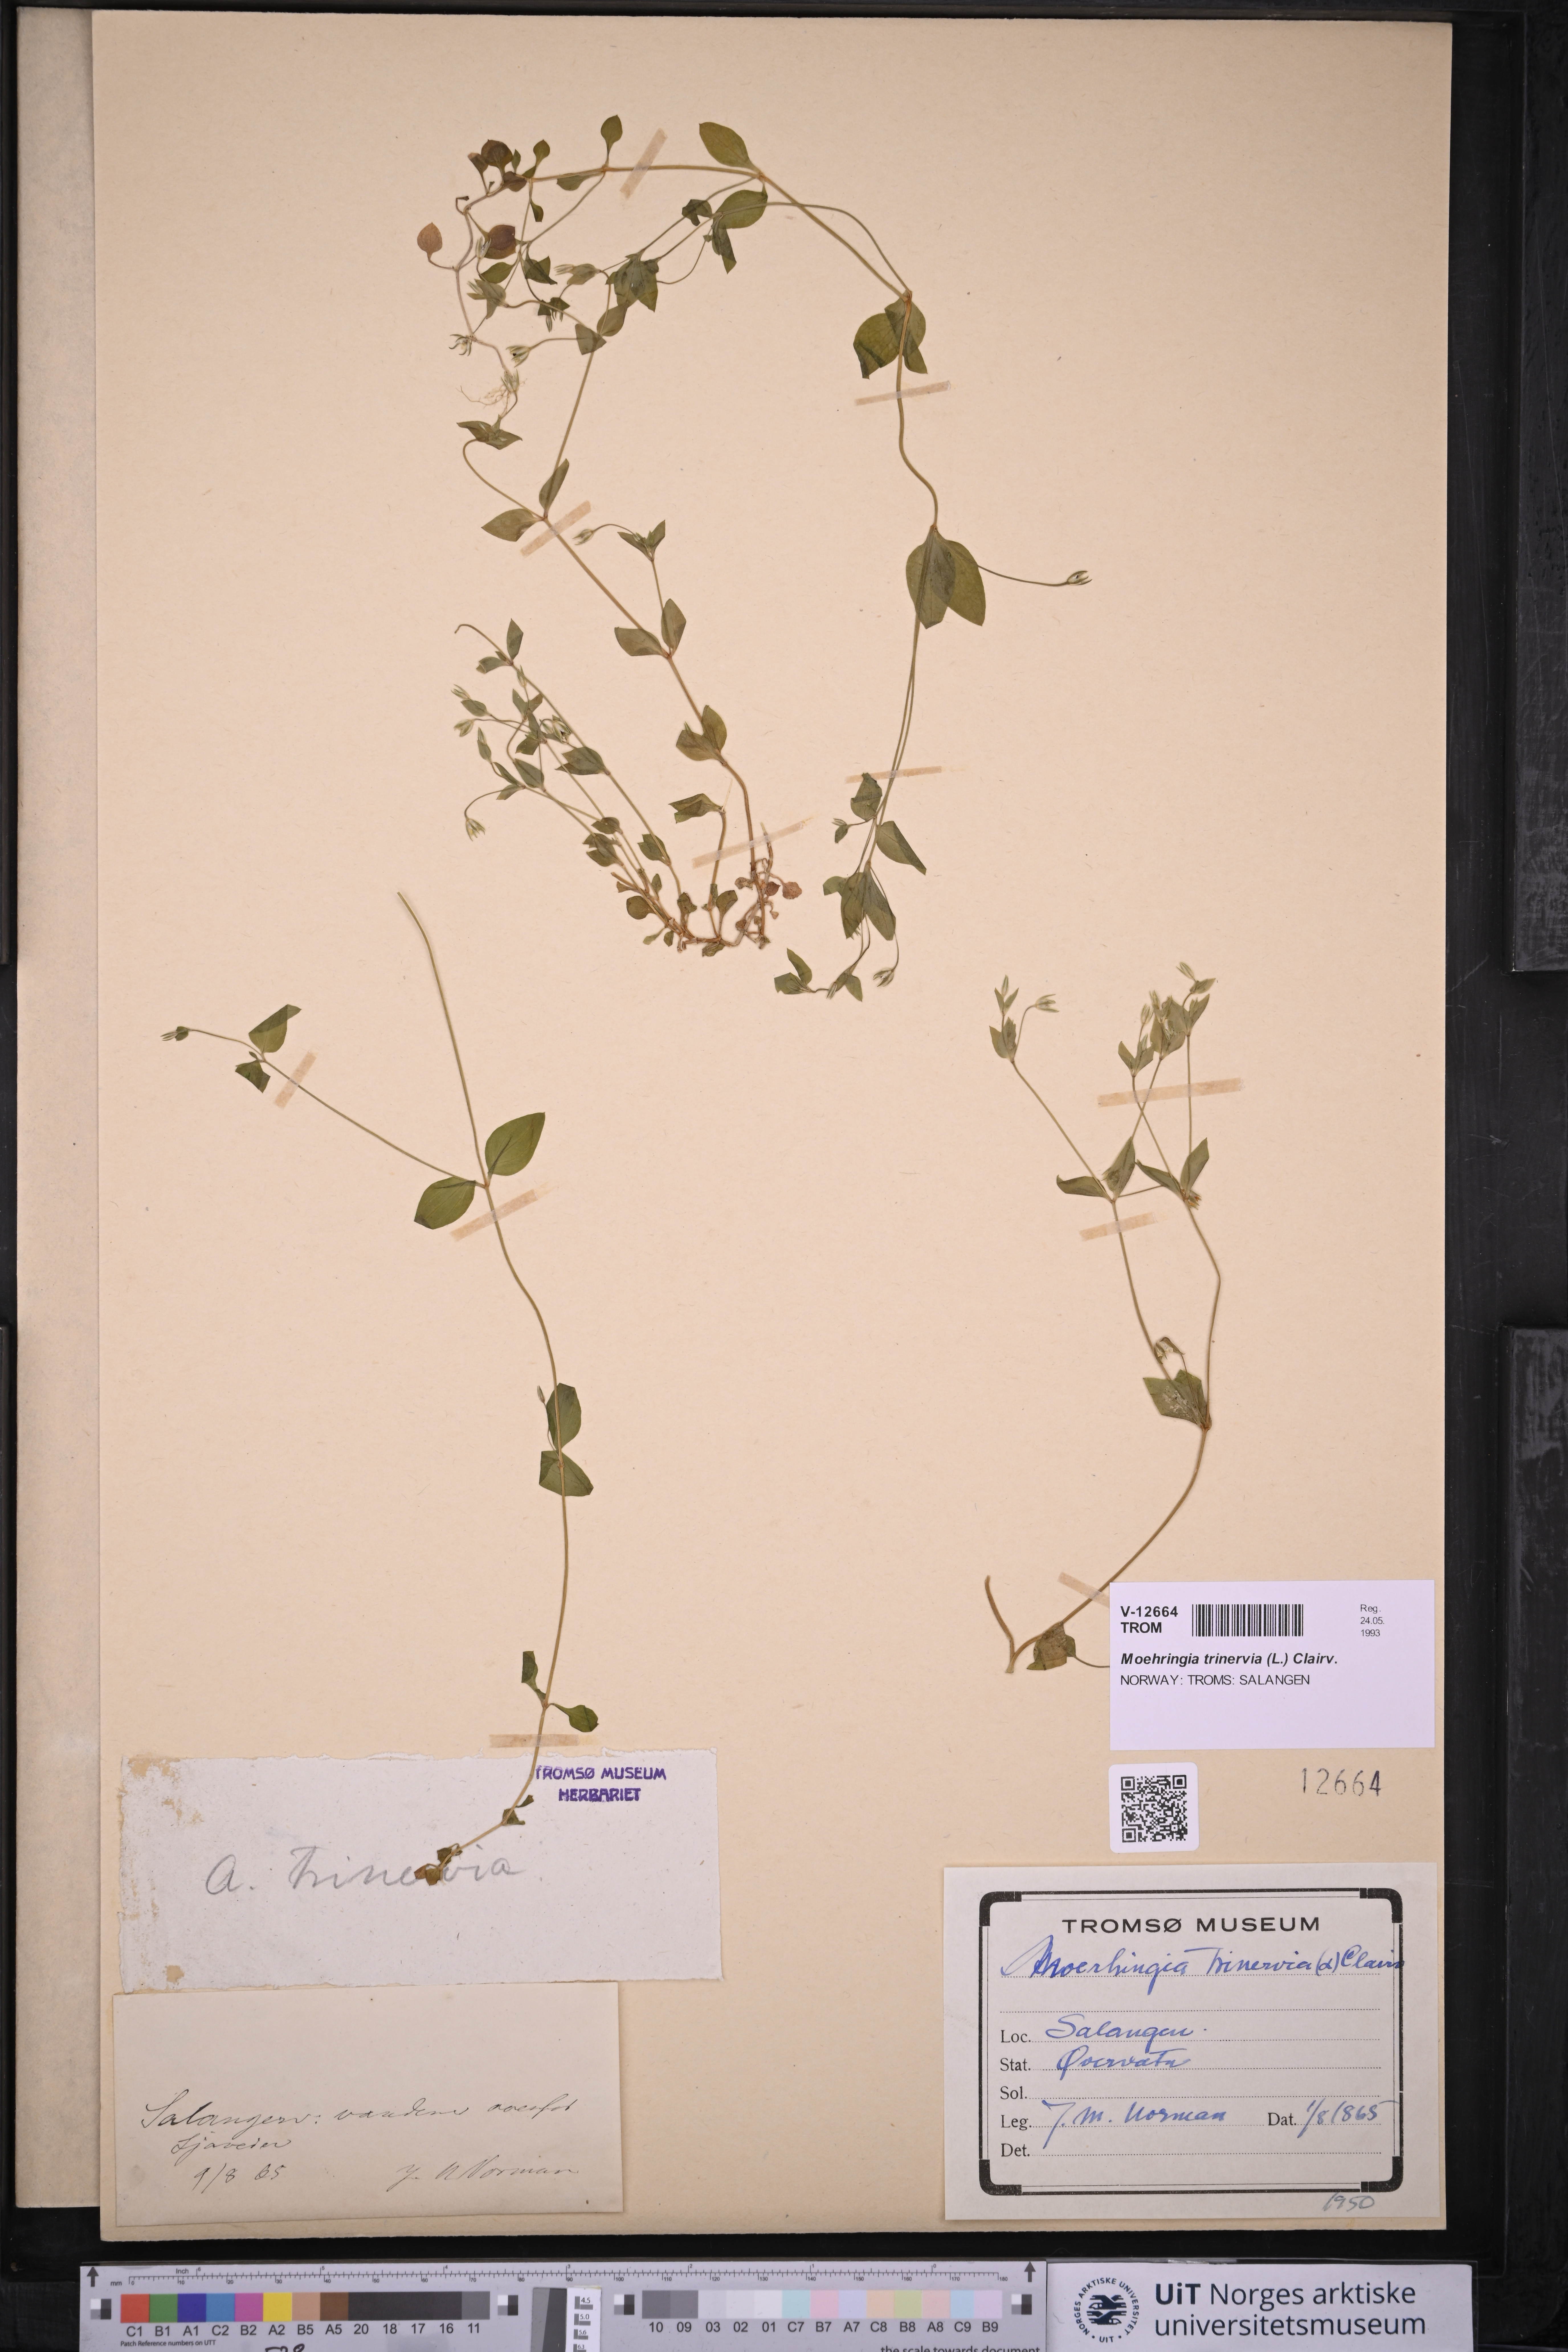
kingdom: Plantae
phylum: Tracheophyta
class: Magnoliopsida
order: Caryophyllales
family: Caryophyllaceae
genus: Moehringia
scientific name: Moehringia trinervia
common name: Three-nerved sandwort
